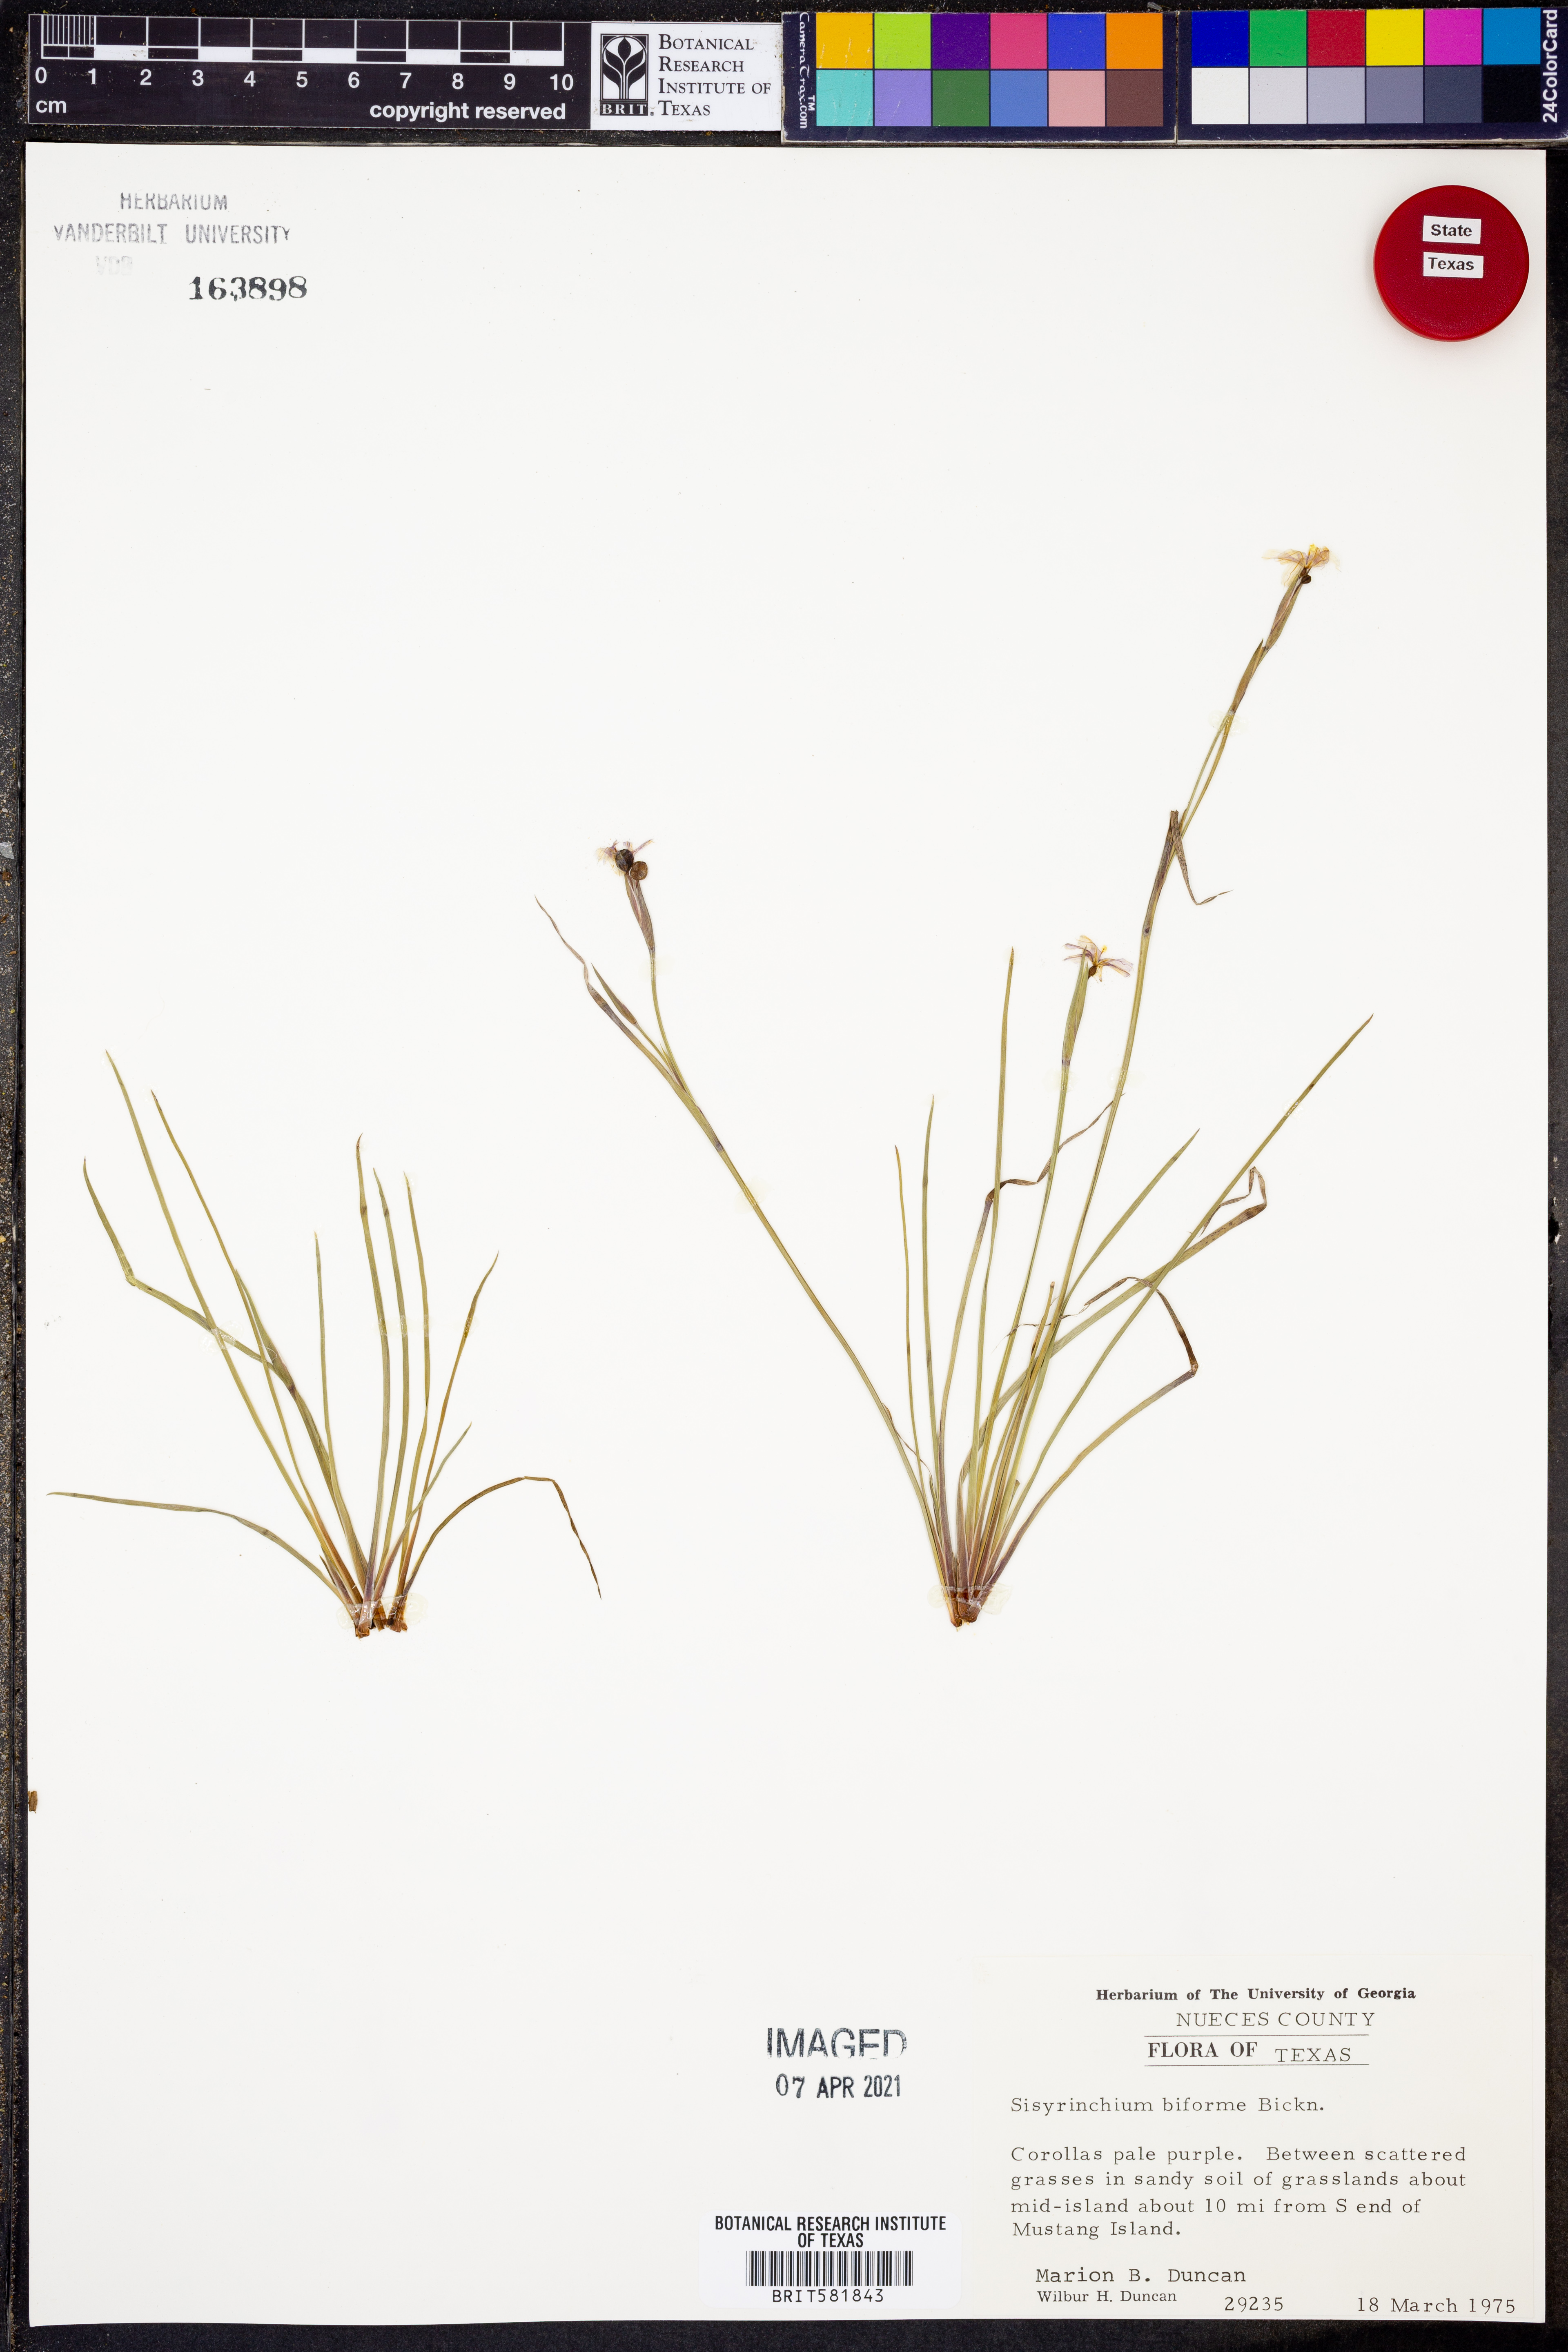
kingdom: Plantae
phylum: Tracheophyta
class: Liliopsida
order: Asparagales
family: Iridaceae
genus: Sisyrinchium
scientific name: Sisyrinchium biforme
